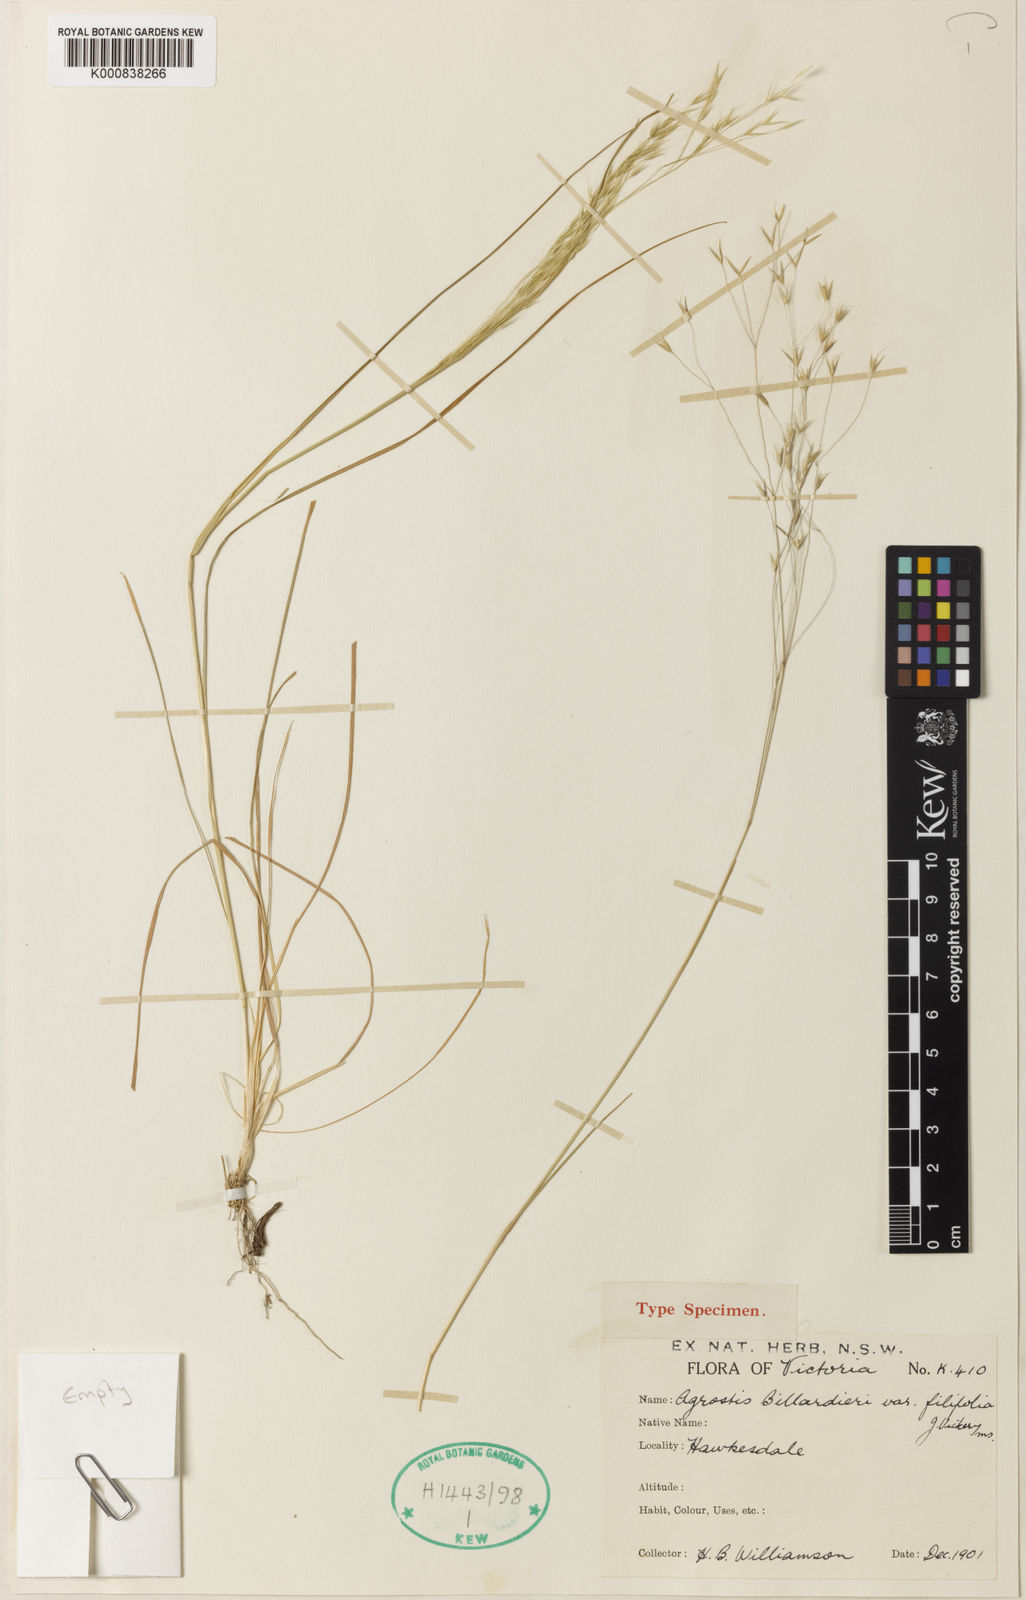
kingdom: Plantae
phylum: Tracheophyta
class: Liliopsida
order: Poales
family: Poaceae
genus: Lachnagrostis
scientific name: Lachnagrostis semibarbata
